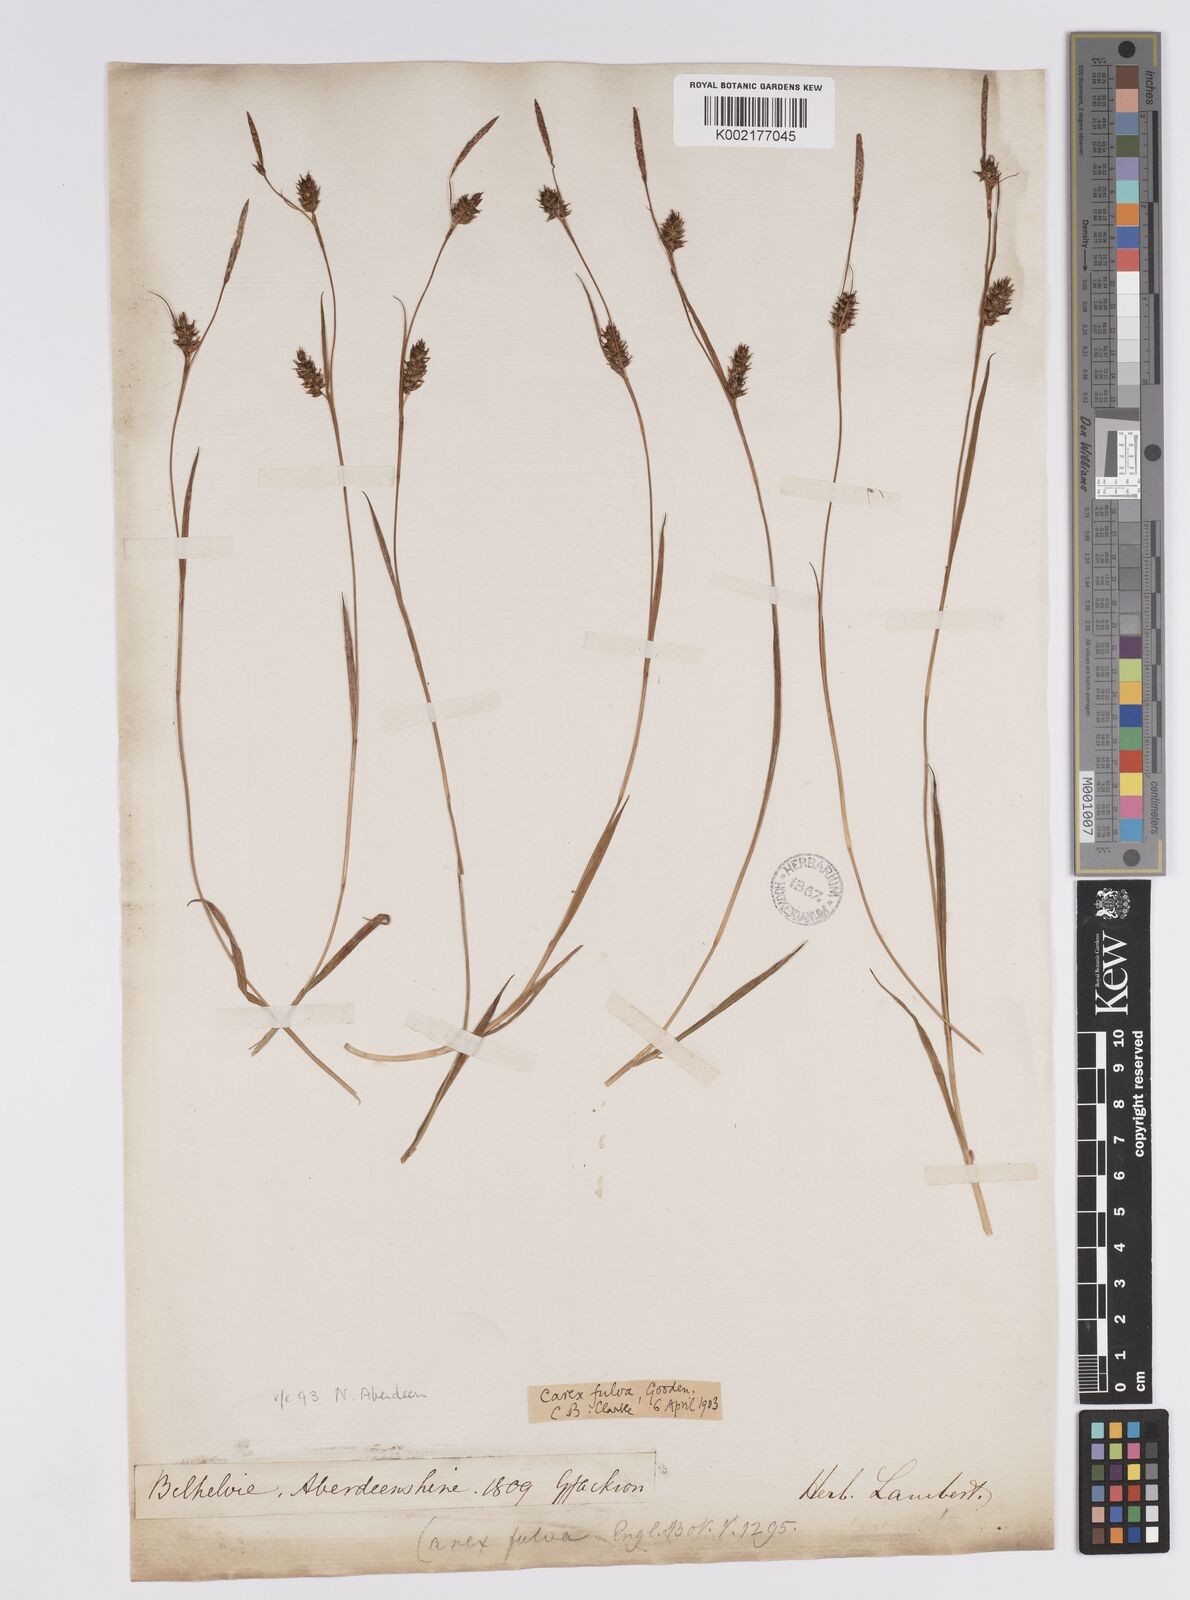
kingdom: Plantae
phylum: Tracheophyta
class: Liliopsida
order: Poales
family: Cyperaceae
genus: Carex
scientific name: Carex hostiana
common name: Tawny sedge
